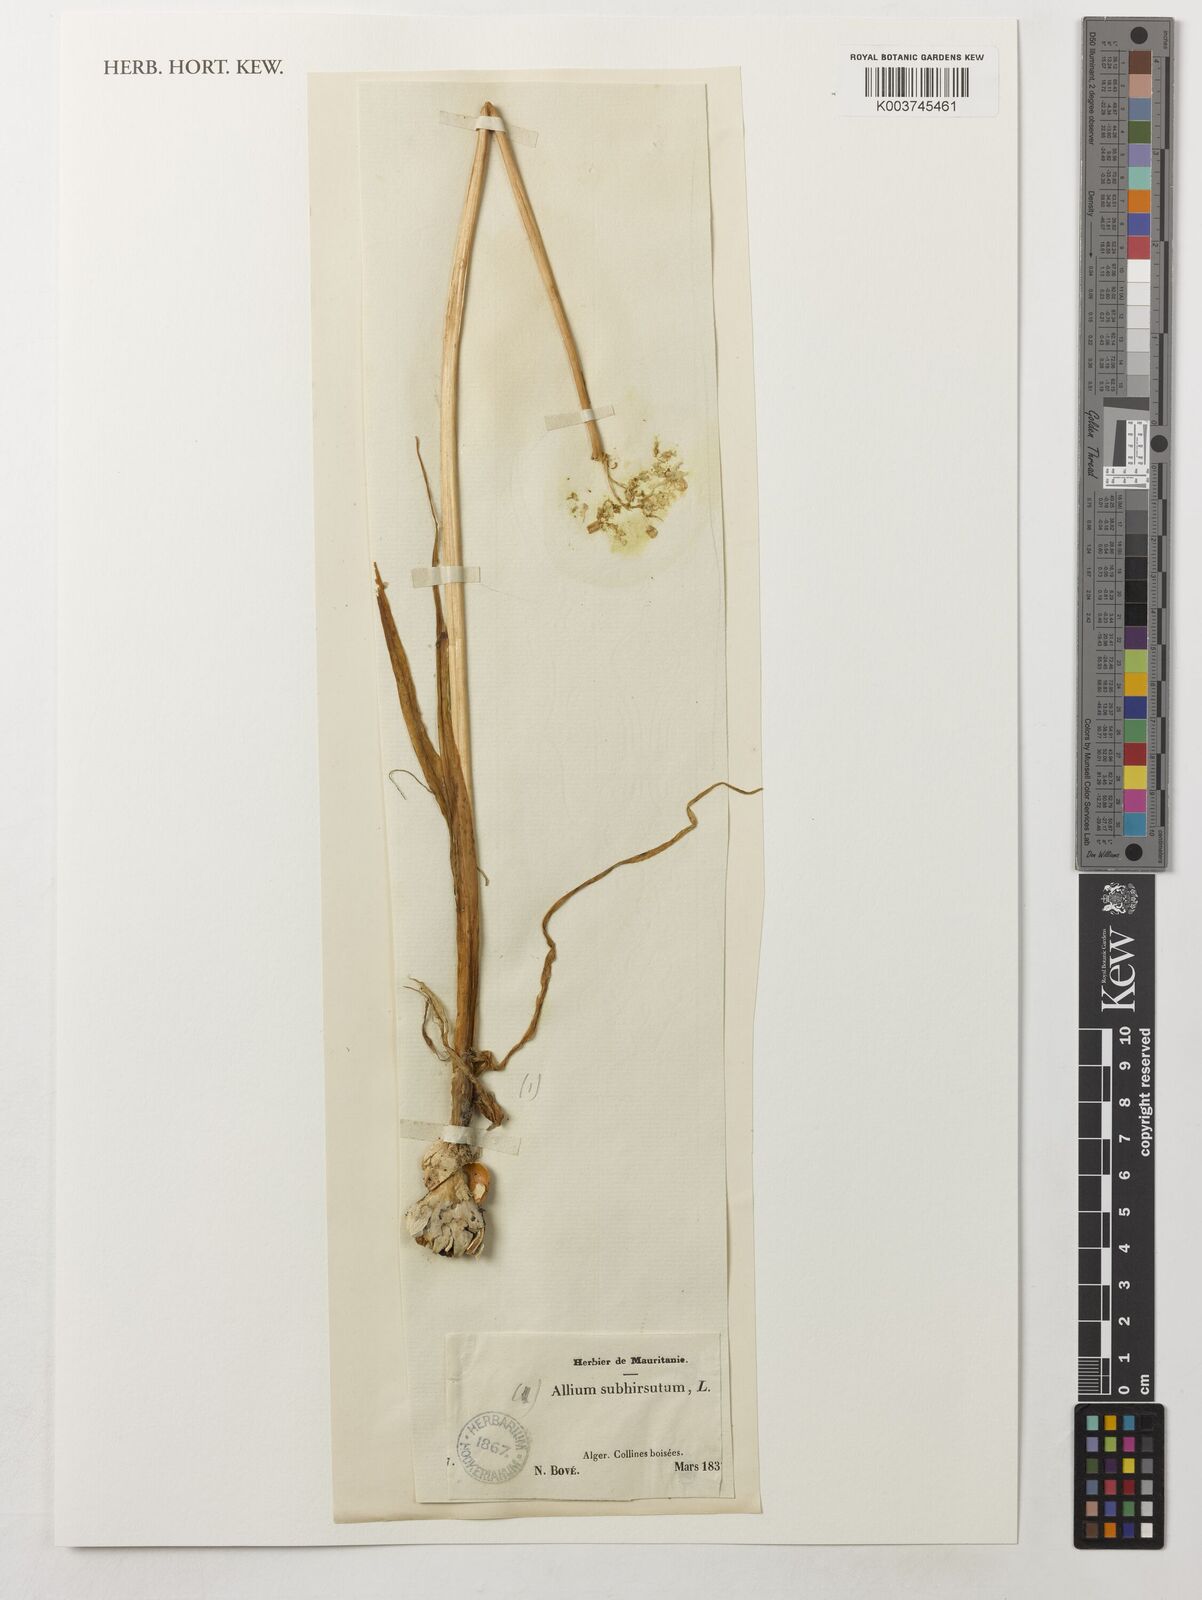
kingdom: Plantae
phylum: Tracheophyta
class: Liliopsida
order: Asparagales
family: Amaryllidaceae
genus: Allium
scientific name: Allium subhirsutum
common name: Hairy garlic
